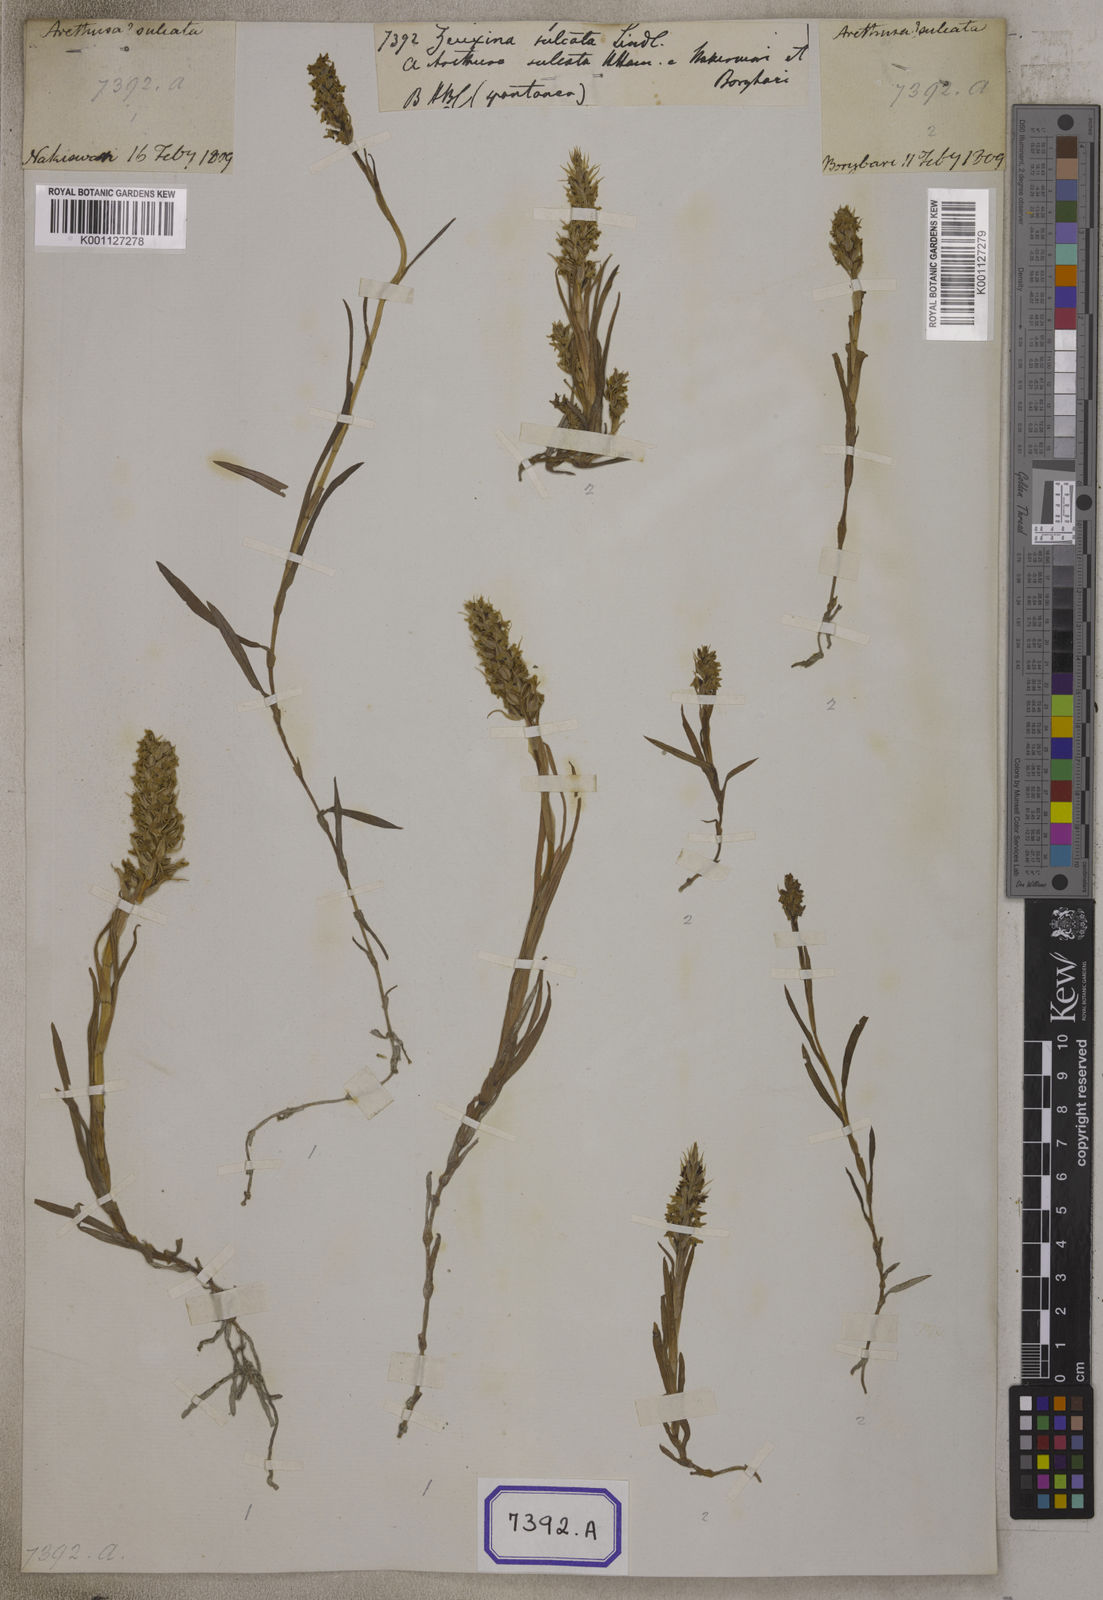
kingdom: Plantae
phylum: Tracheophyta
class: Liliopsida
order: Asparagales
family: Orchidaceae
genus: Zeuxine
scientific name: Zeuxine
